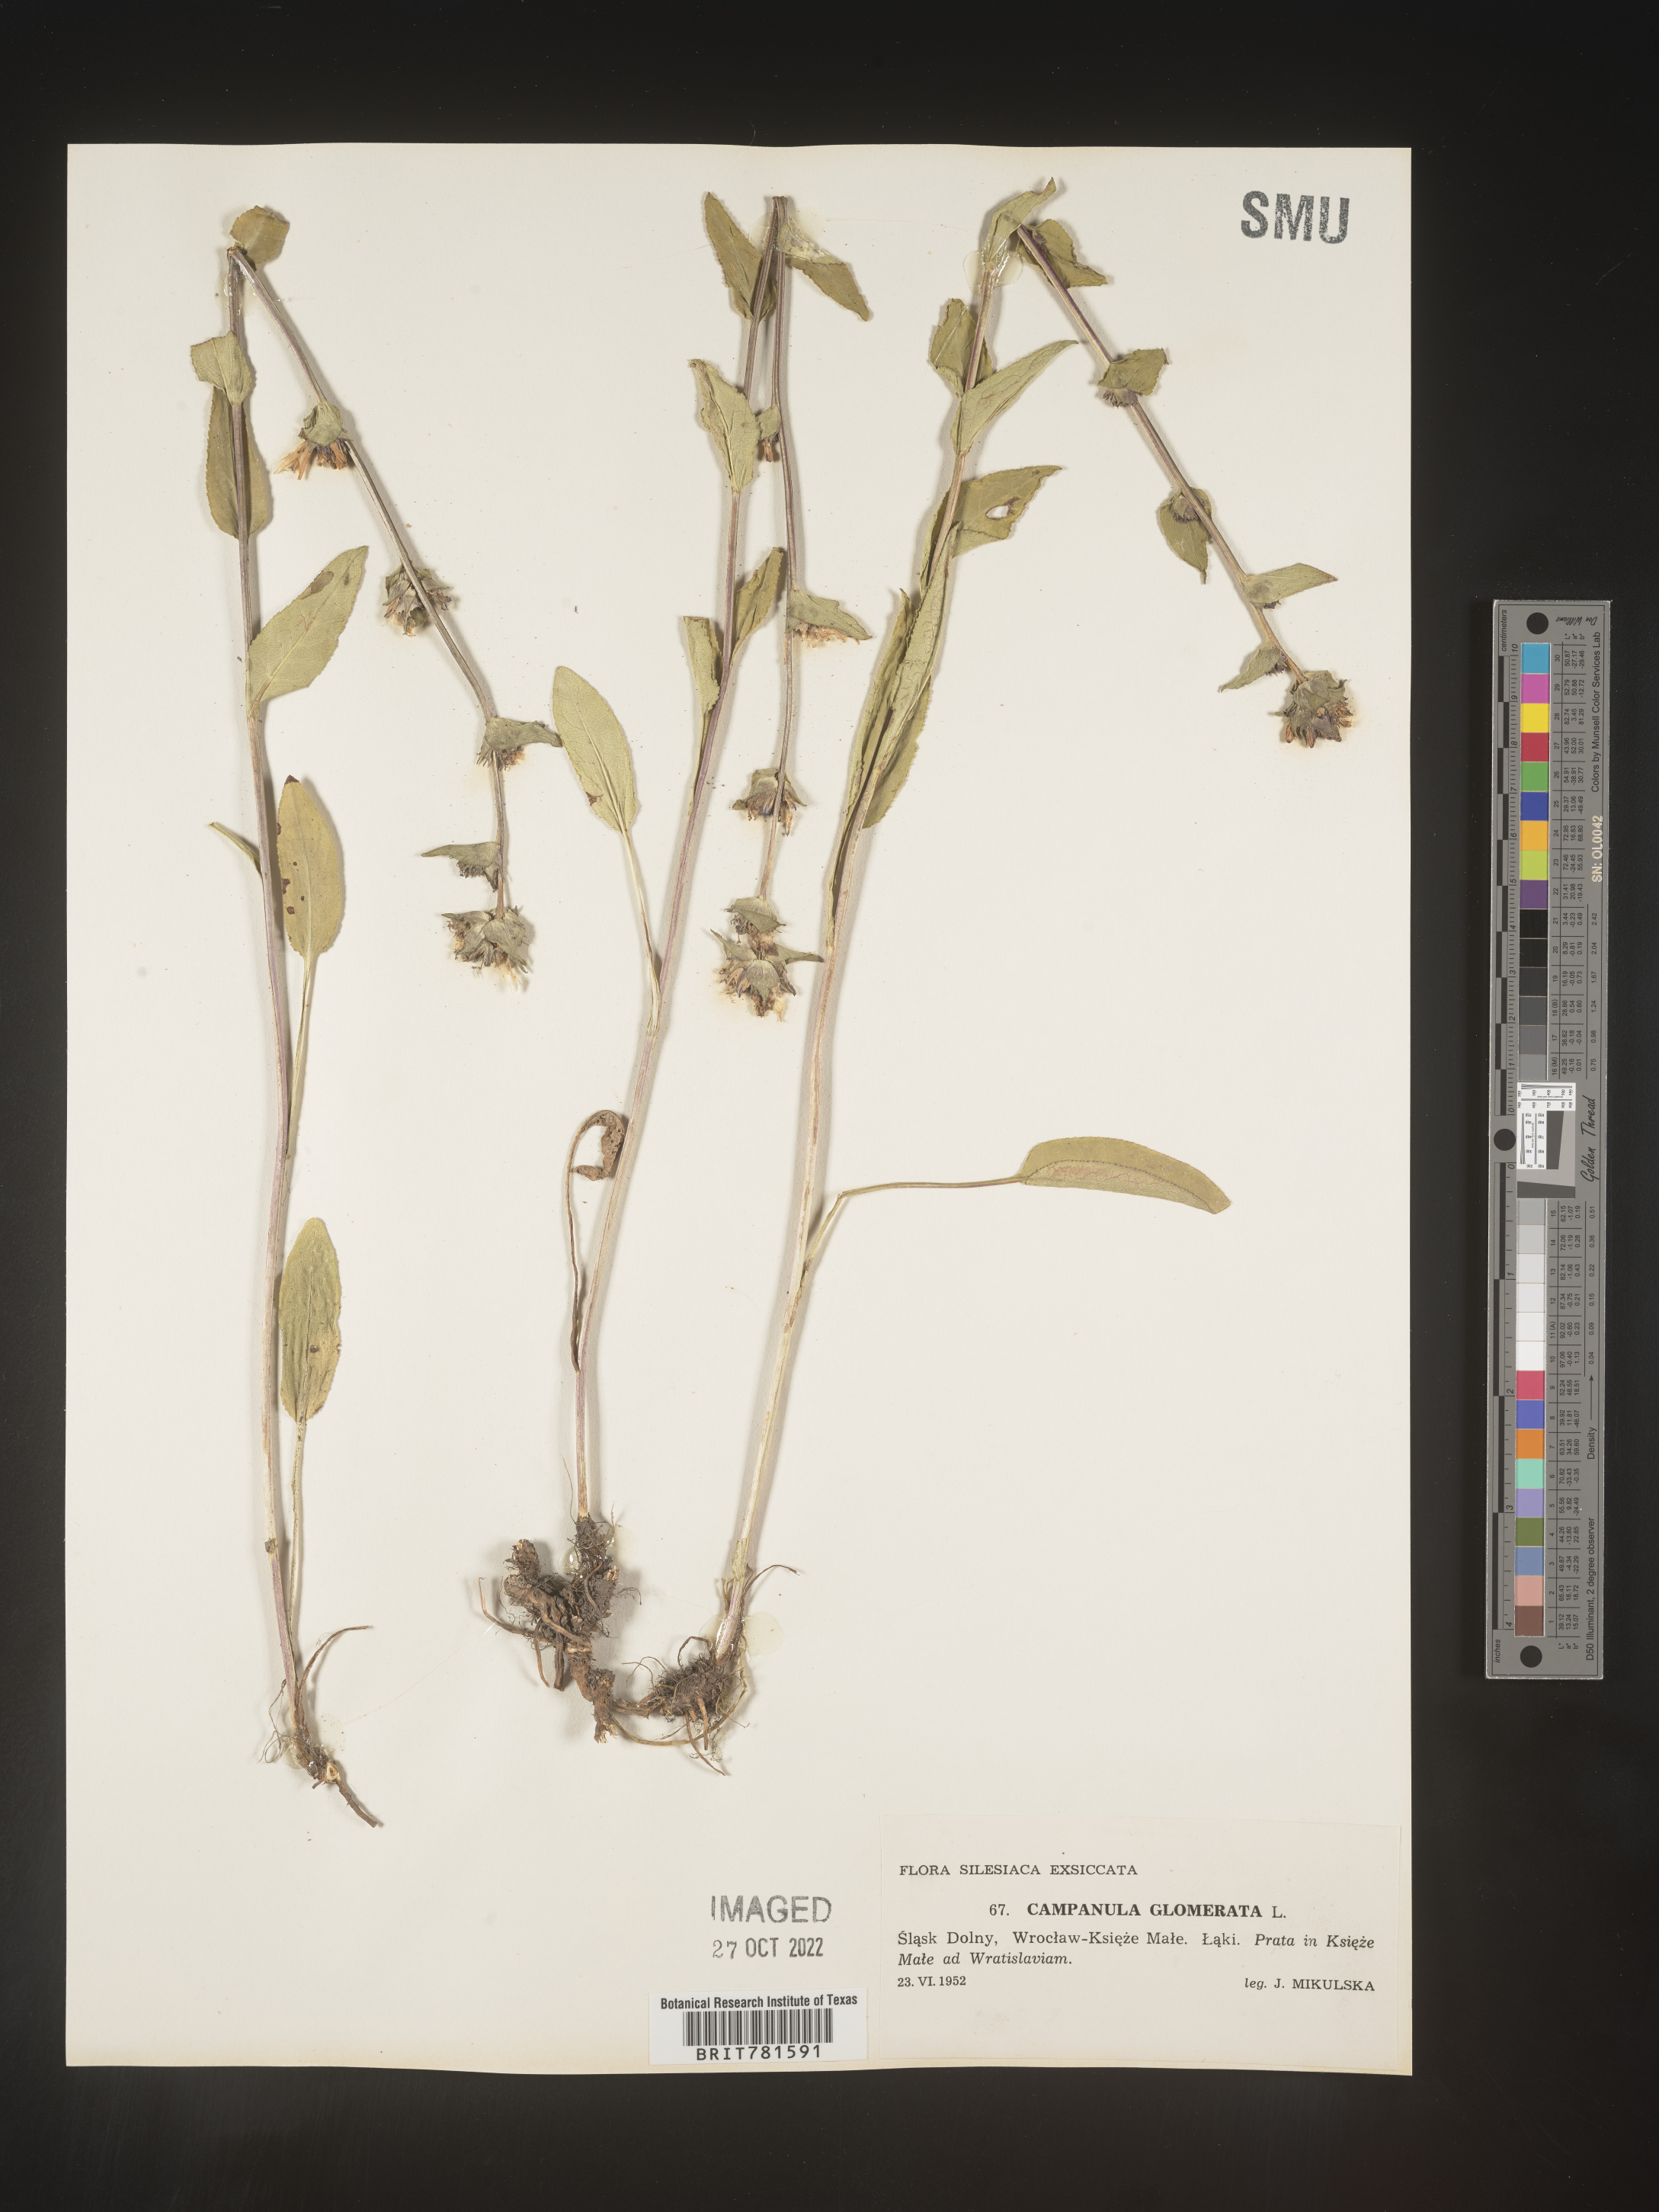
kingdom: Plantae
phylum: Tracheophyta
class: Magnoliopsida
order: Asterales
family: Campanulaceae
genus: Campanula
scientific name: Campanula
